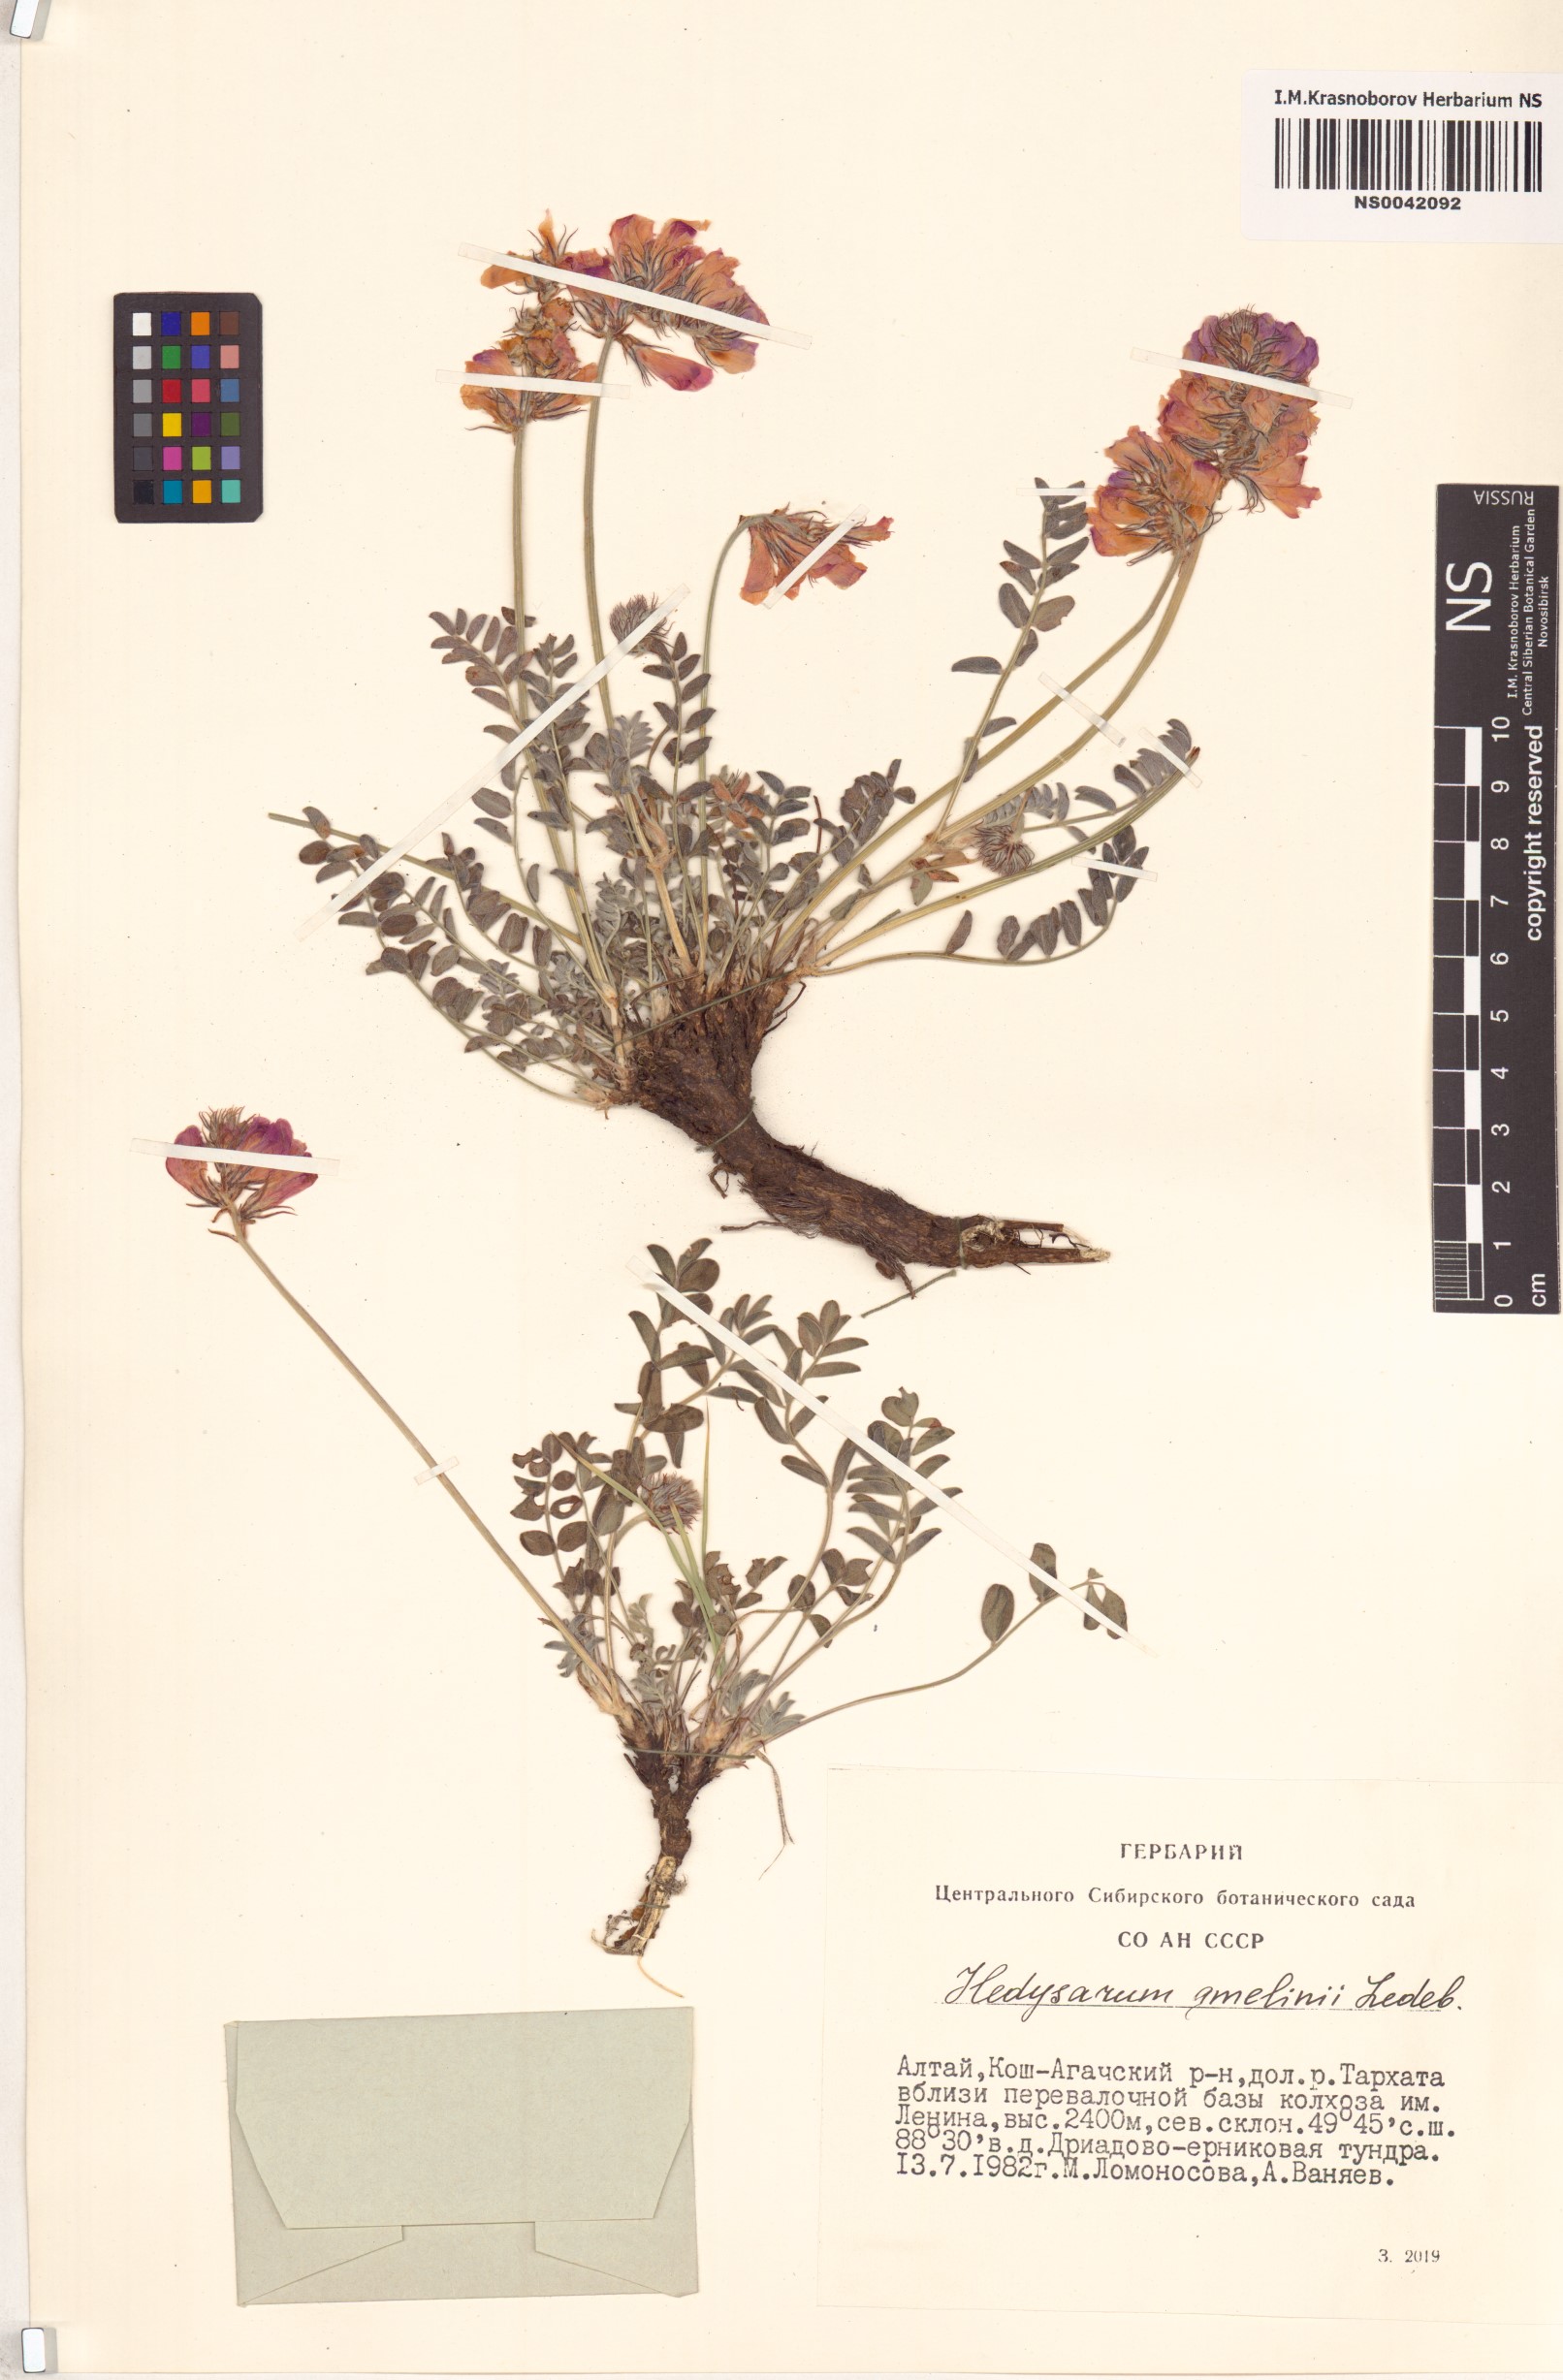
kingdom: Plantae
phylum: Tracheophyta
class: Magnoliopsida
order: Fabales
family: Fabaceae
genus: Hedysarum
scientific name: Hedysarum gmelinii
